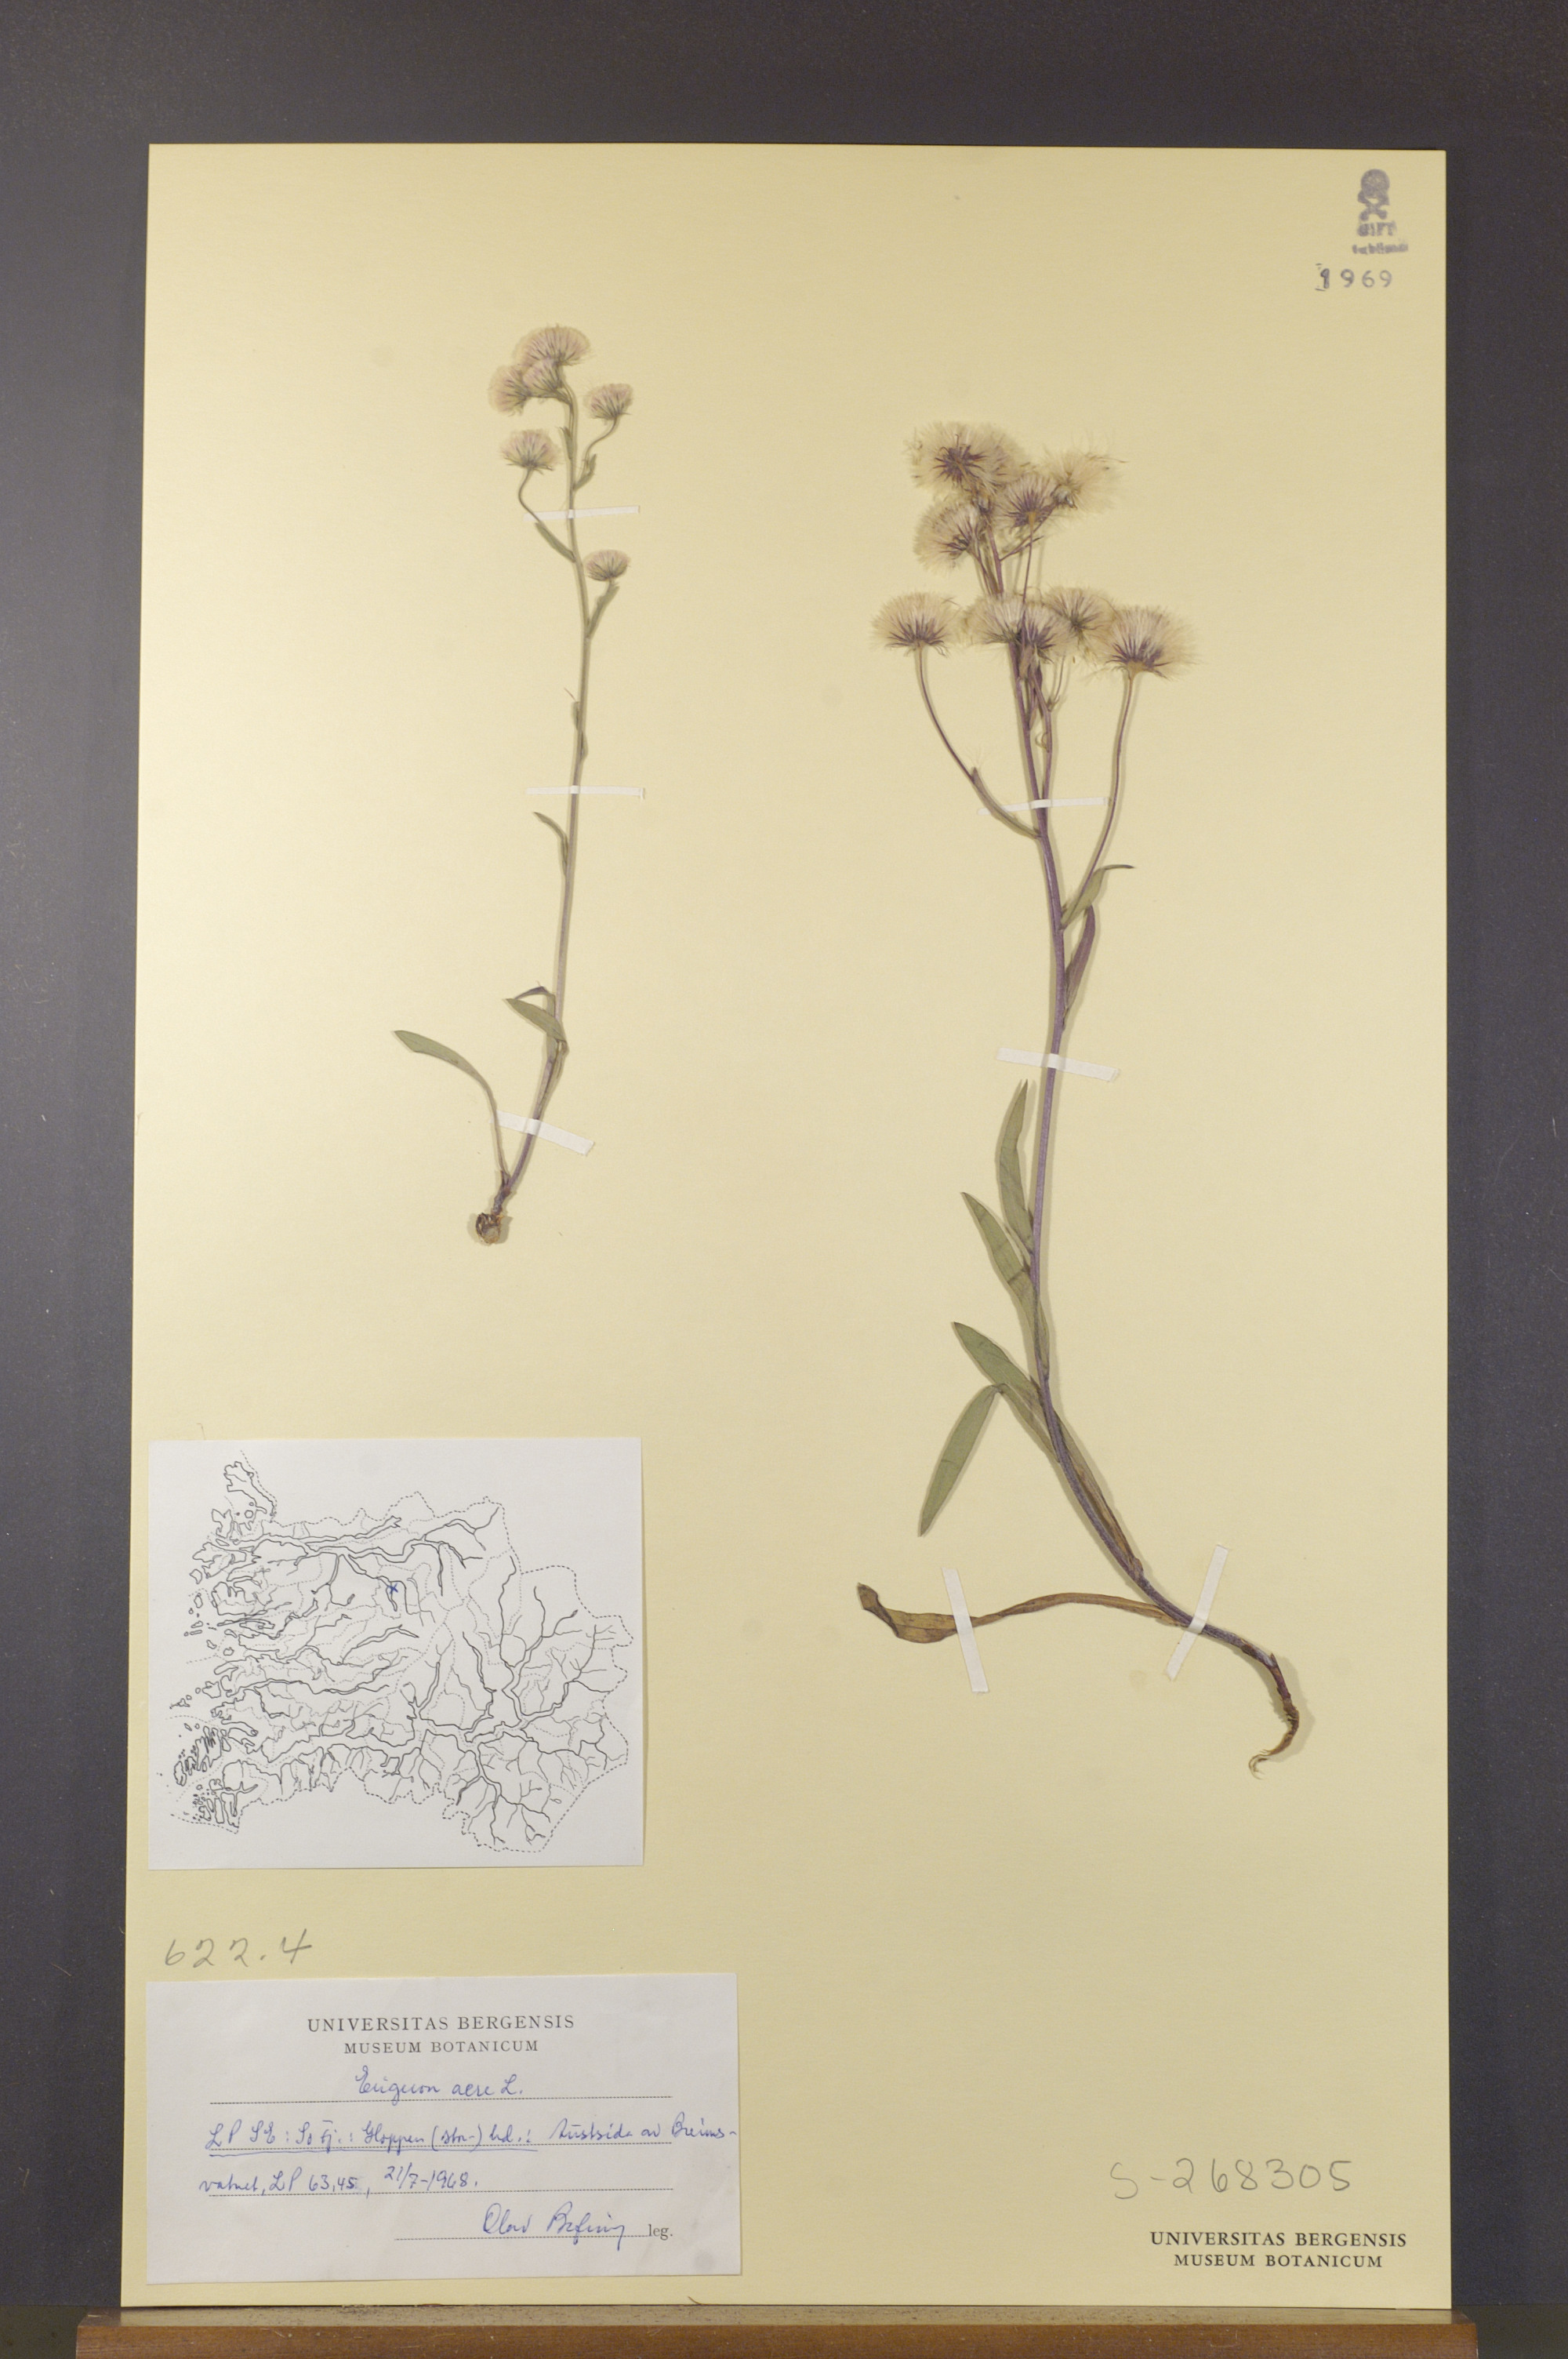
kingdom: Plantae
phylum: Tracheophyta
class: Magnoliopsida
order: Asterales
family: Asteraceae
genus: Erigeron
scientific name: Erigeron acris
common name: Blue fleabane
